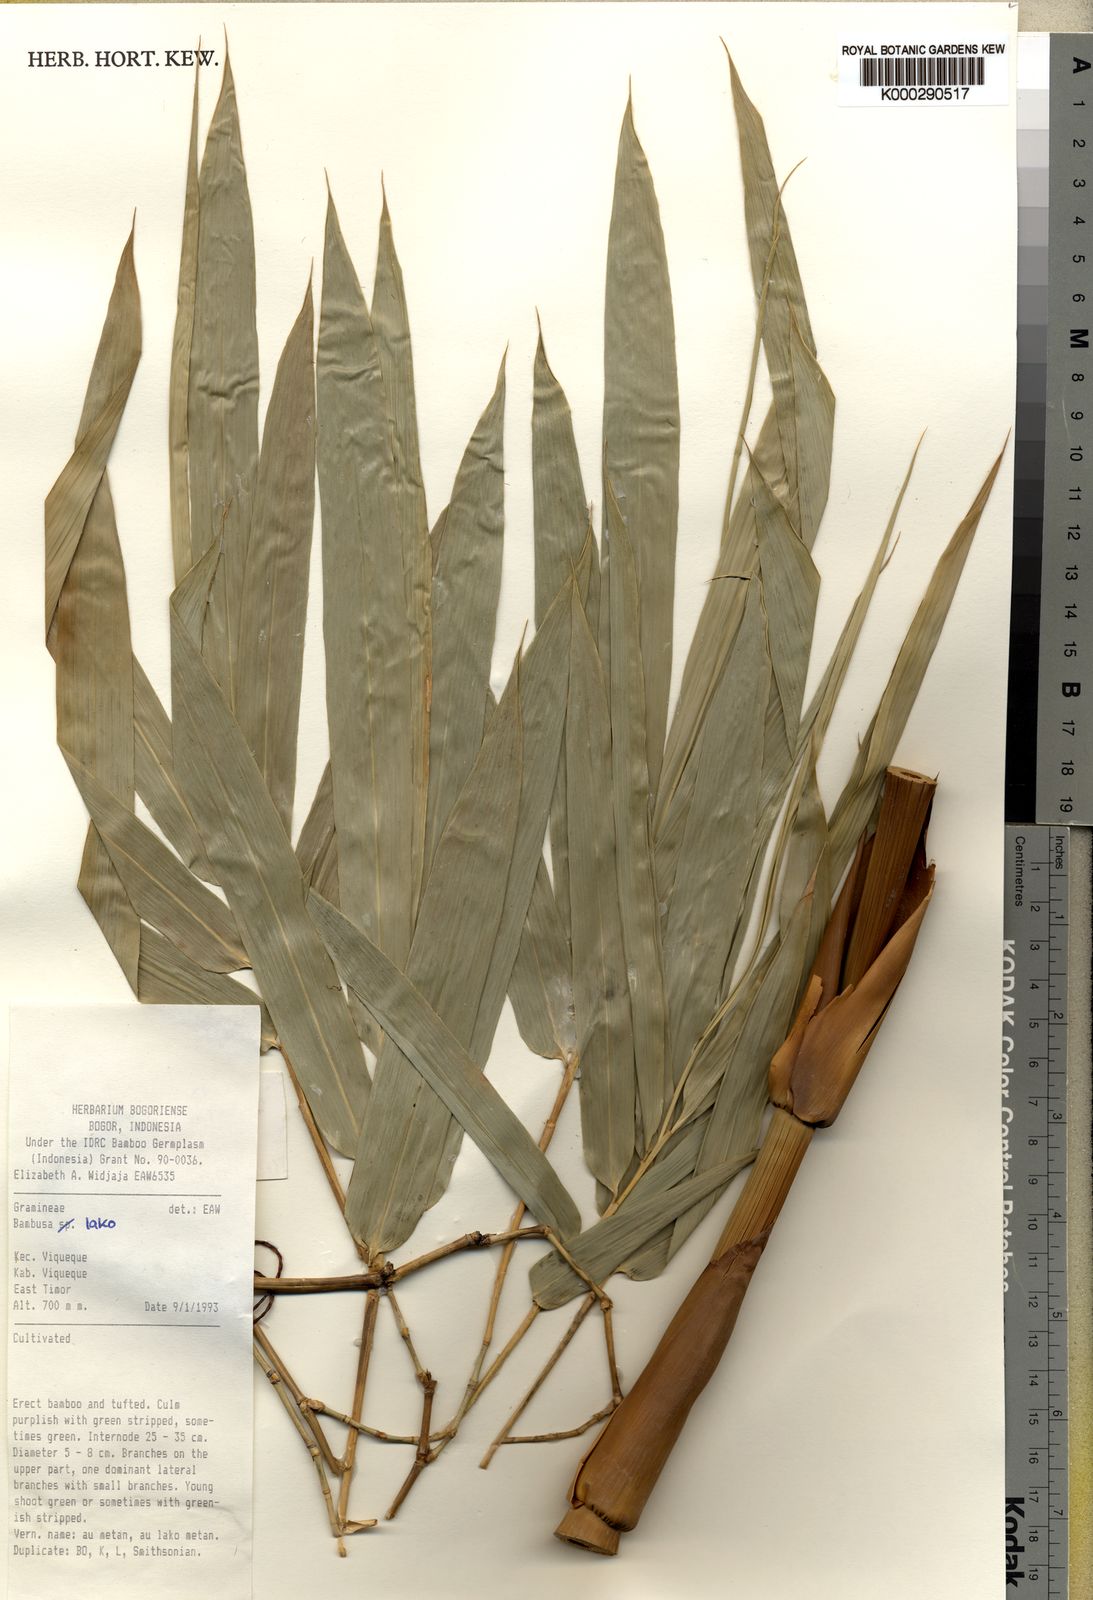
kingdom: Plantae
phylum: Tracheophyta
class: Liliopsida
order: Poales
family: Poaceae
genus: Bambusa
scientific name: Bambusa lako
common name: Timor black bamboo
